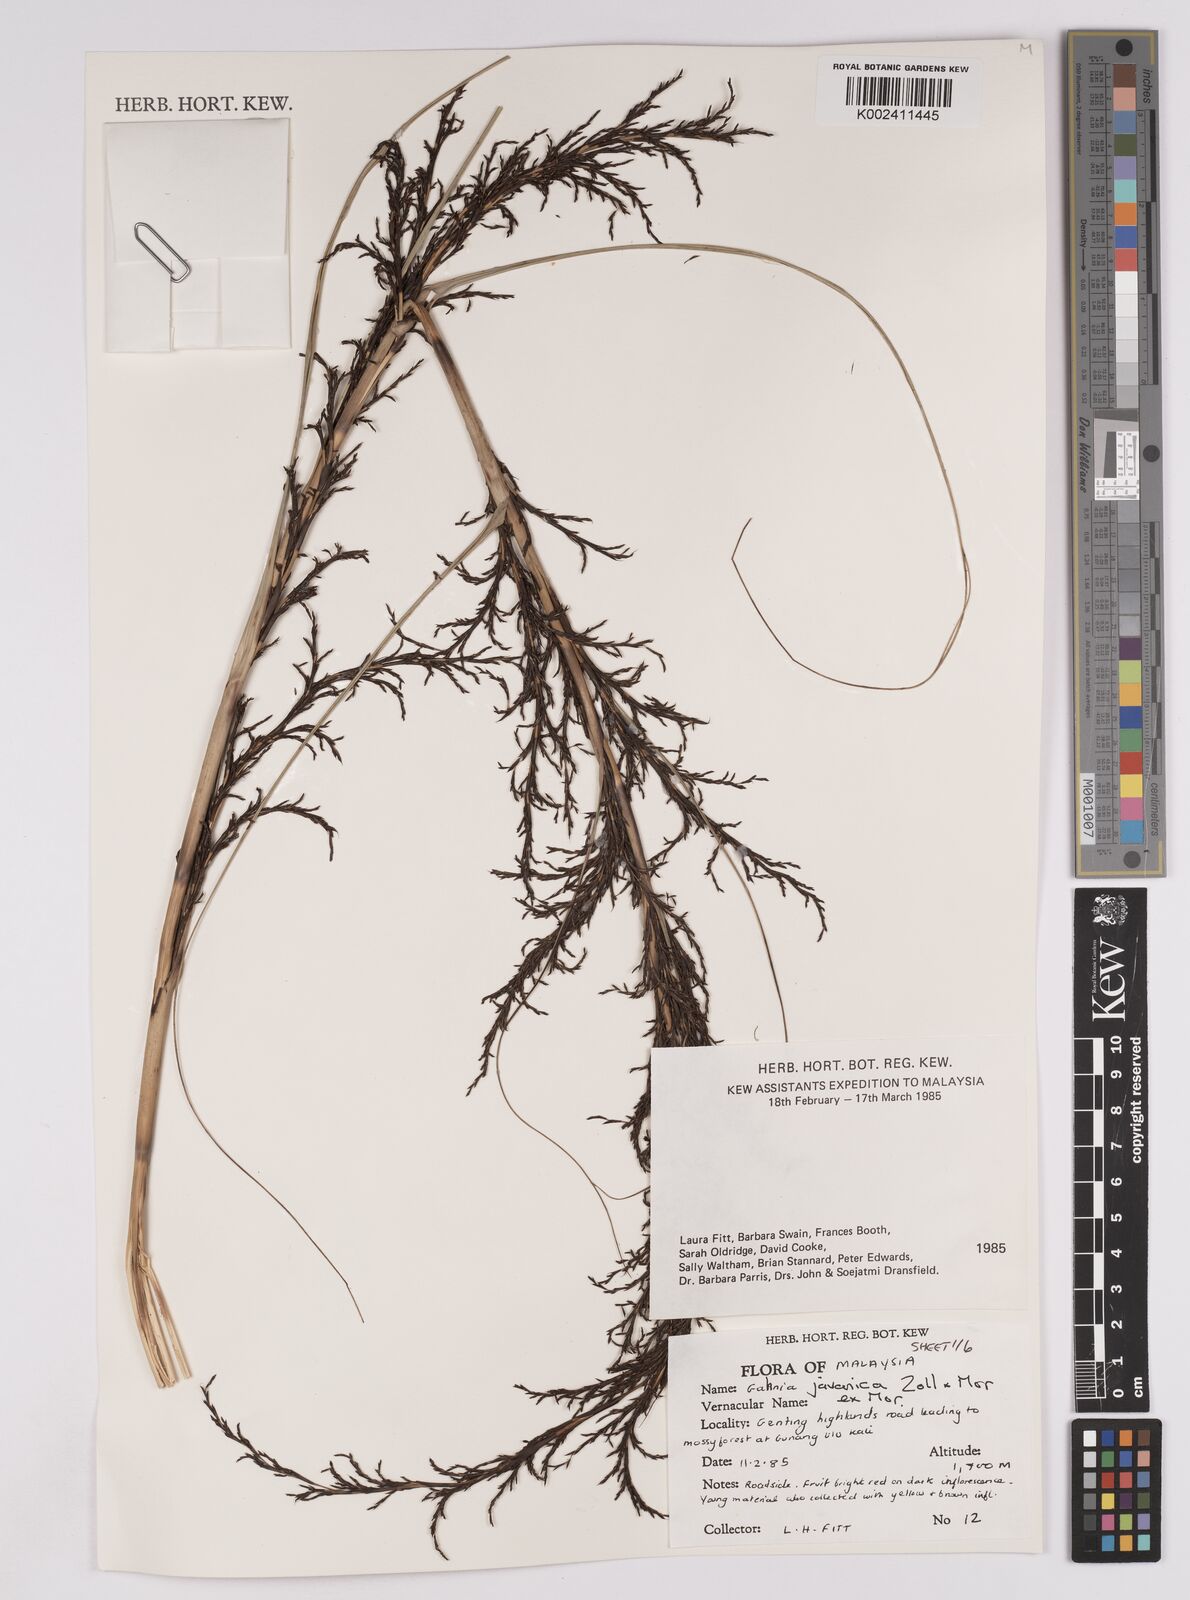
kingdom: Plantae
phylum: Tracheophyta
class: Liliopsida
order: Poales
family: Cyperaceae
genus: Gahnia
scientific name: Gahnia javanica
